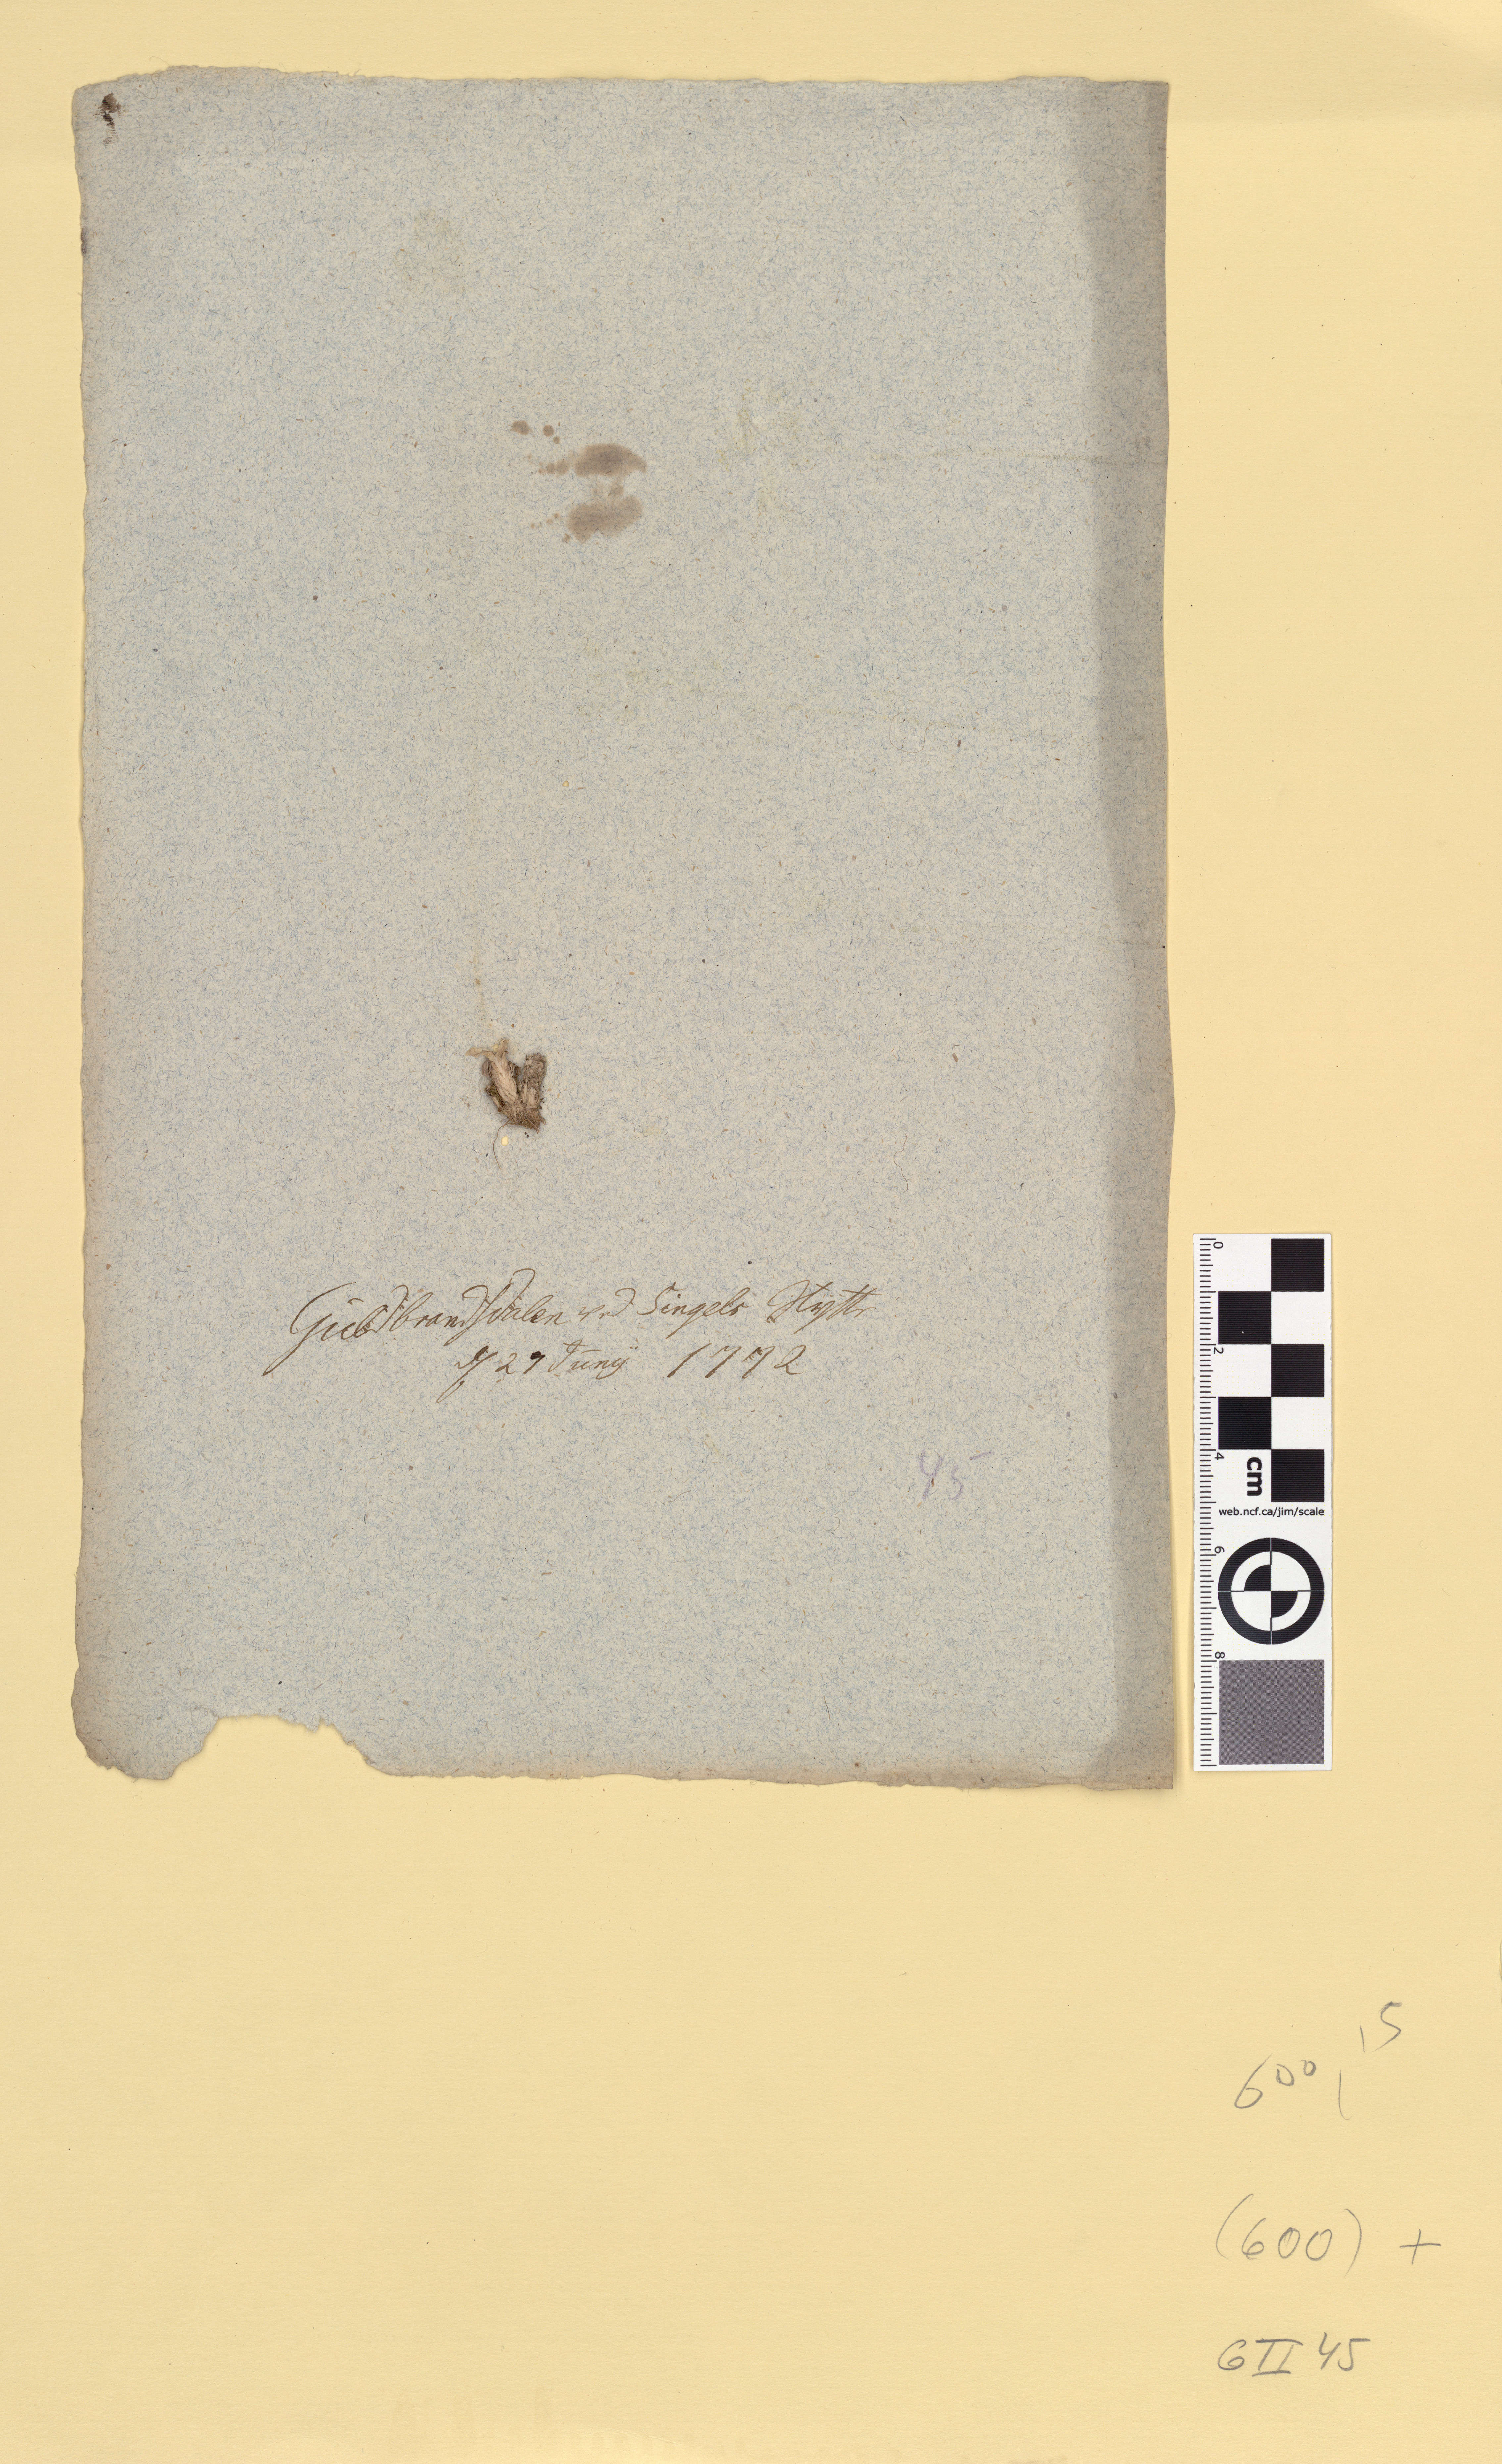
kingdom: Plantae
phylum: Tracheophyta
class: Liliopsida
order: Poales
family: Poaceae
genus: Poa
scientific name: Poa alpina
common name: Alpine bluegrass
